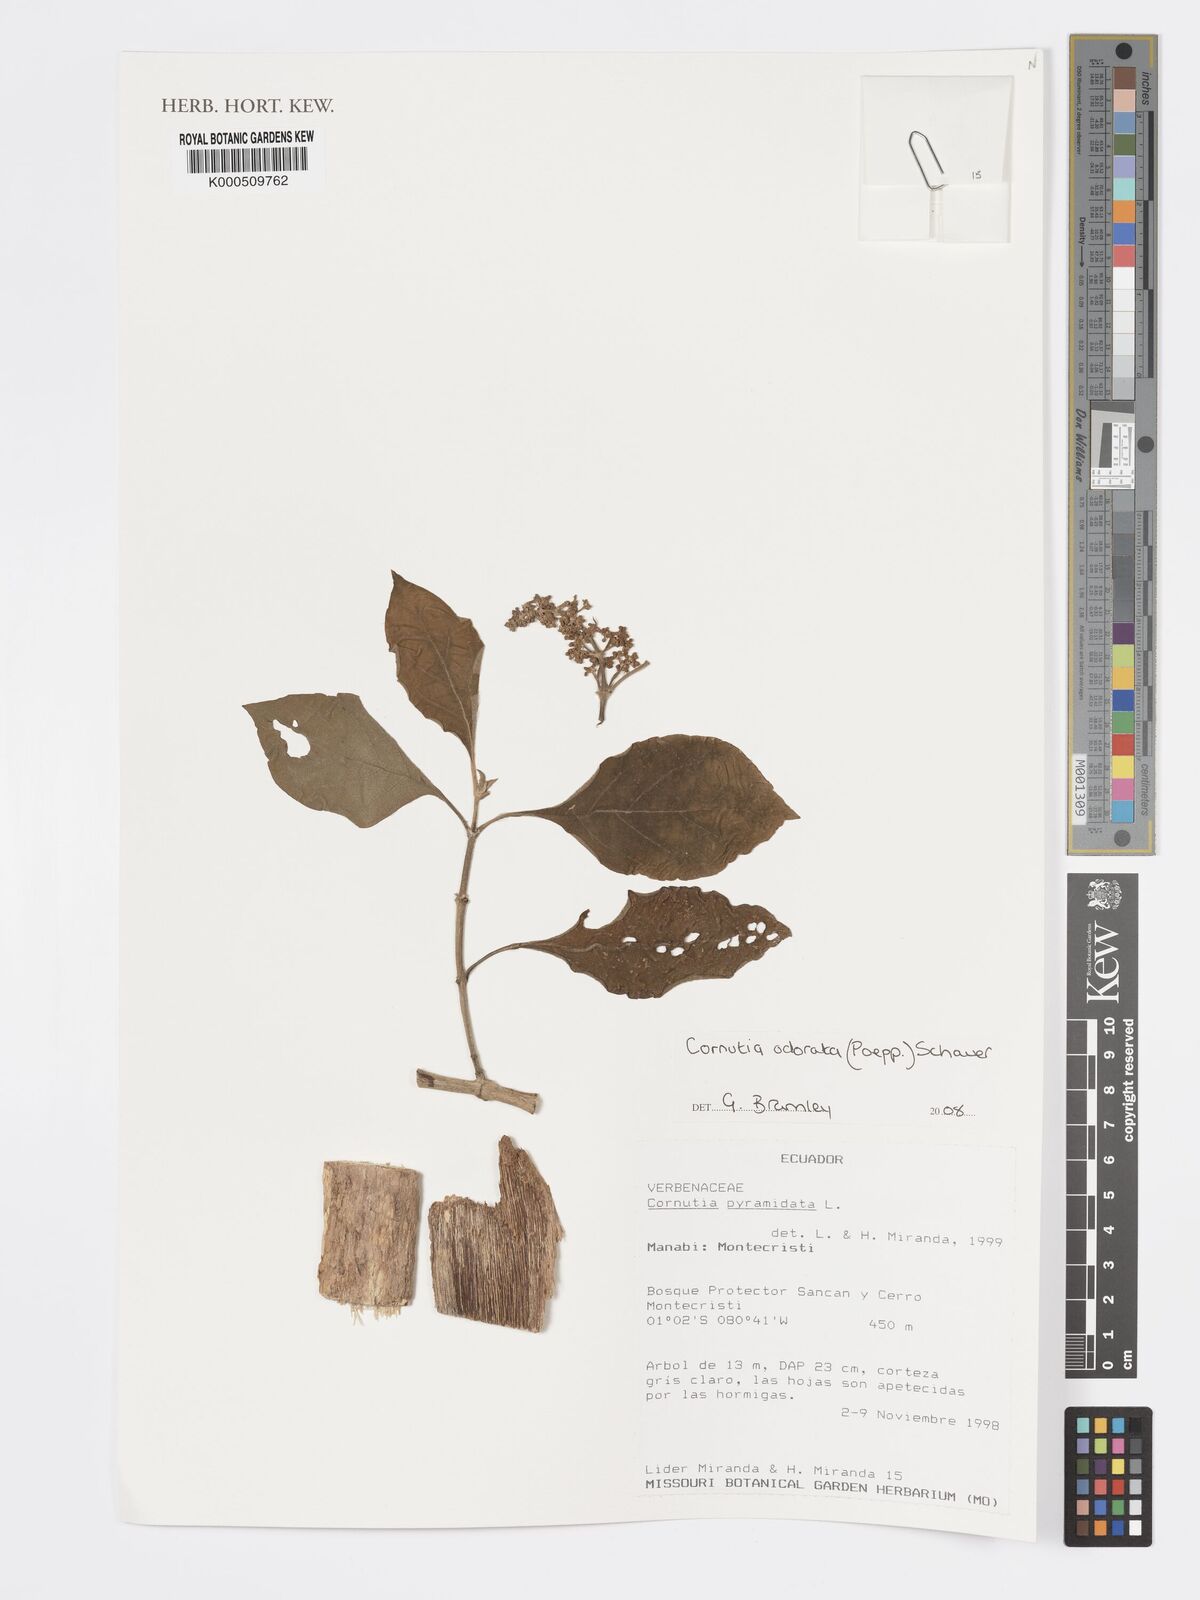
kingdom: Plantae
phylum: Tracheophyta
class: Magnoliopsida
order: Lamiales
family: Lamiaceae
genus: Cornutia
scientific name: Cornutia pyramidata
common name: Azulejo
